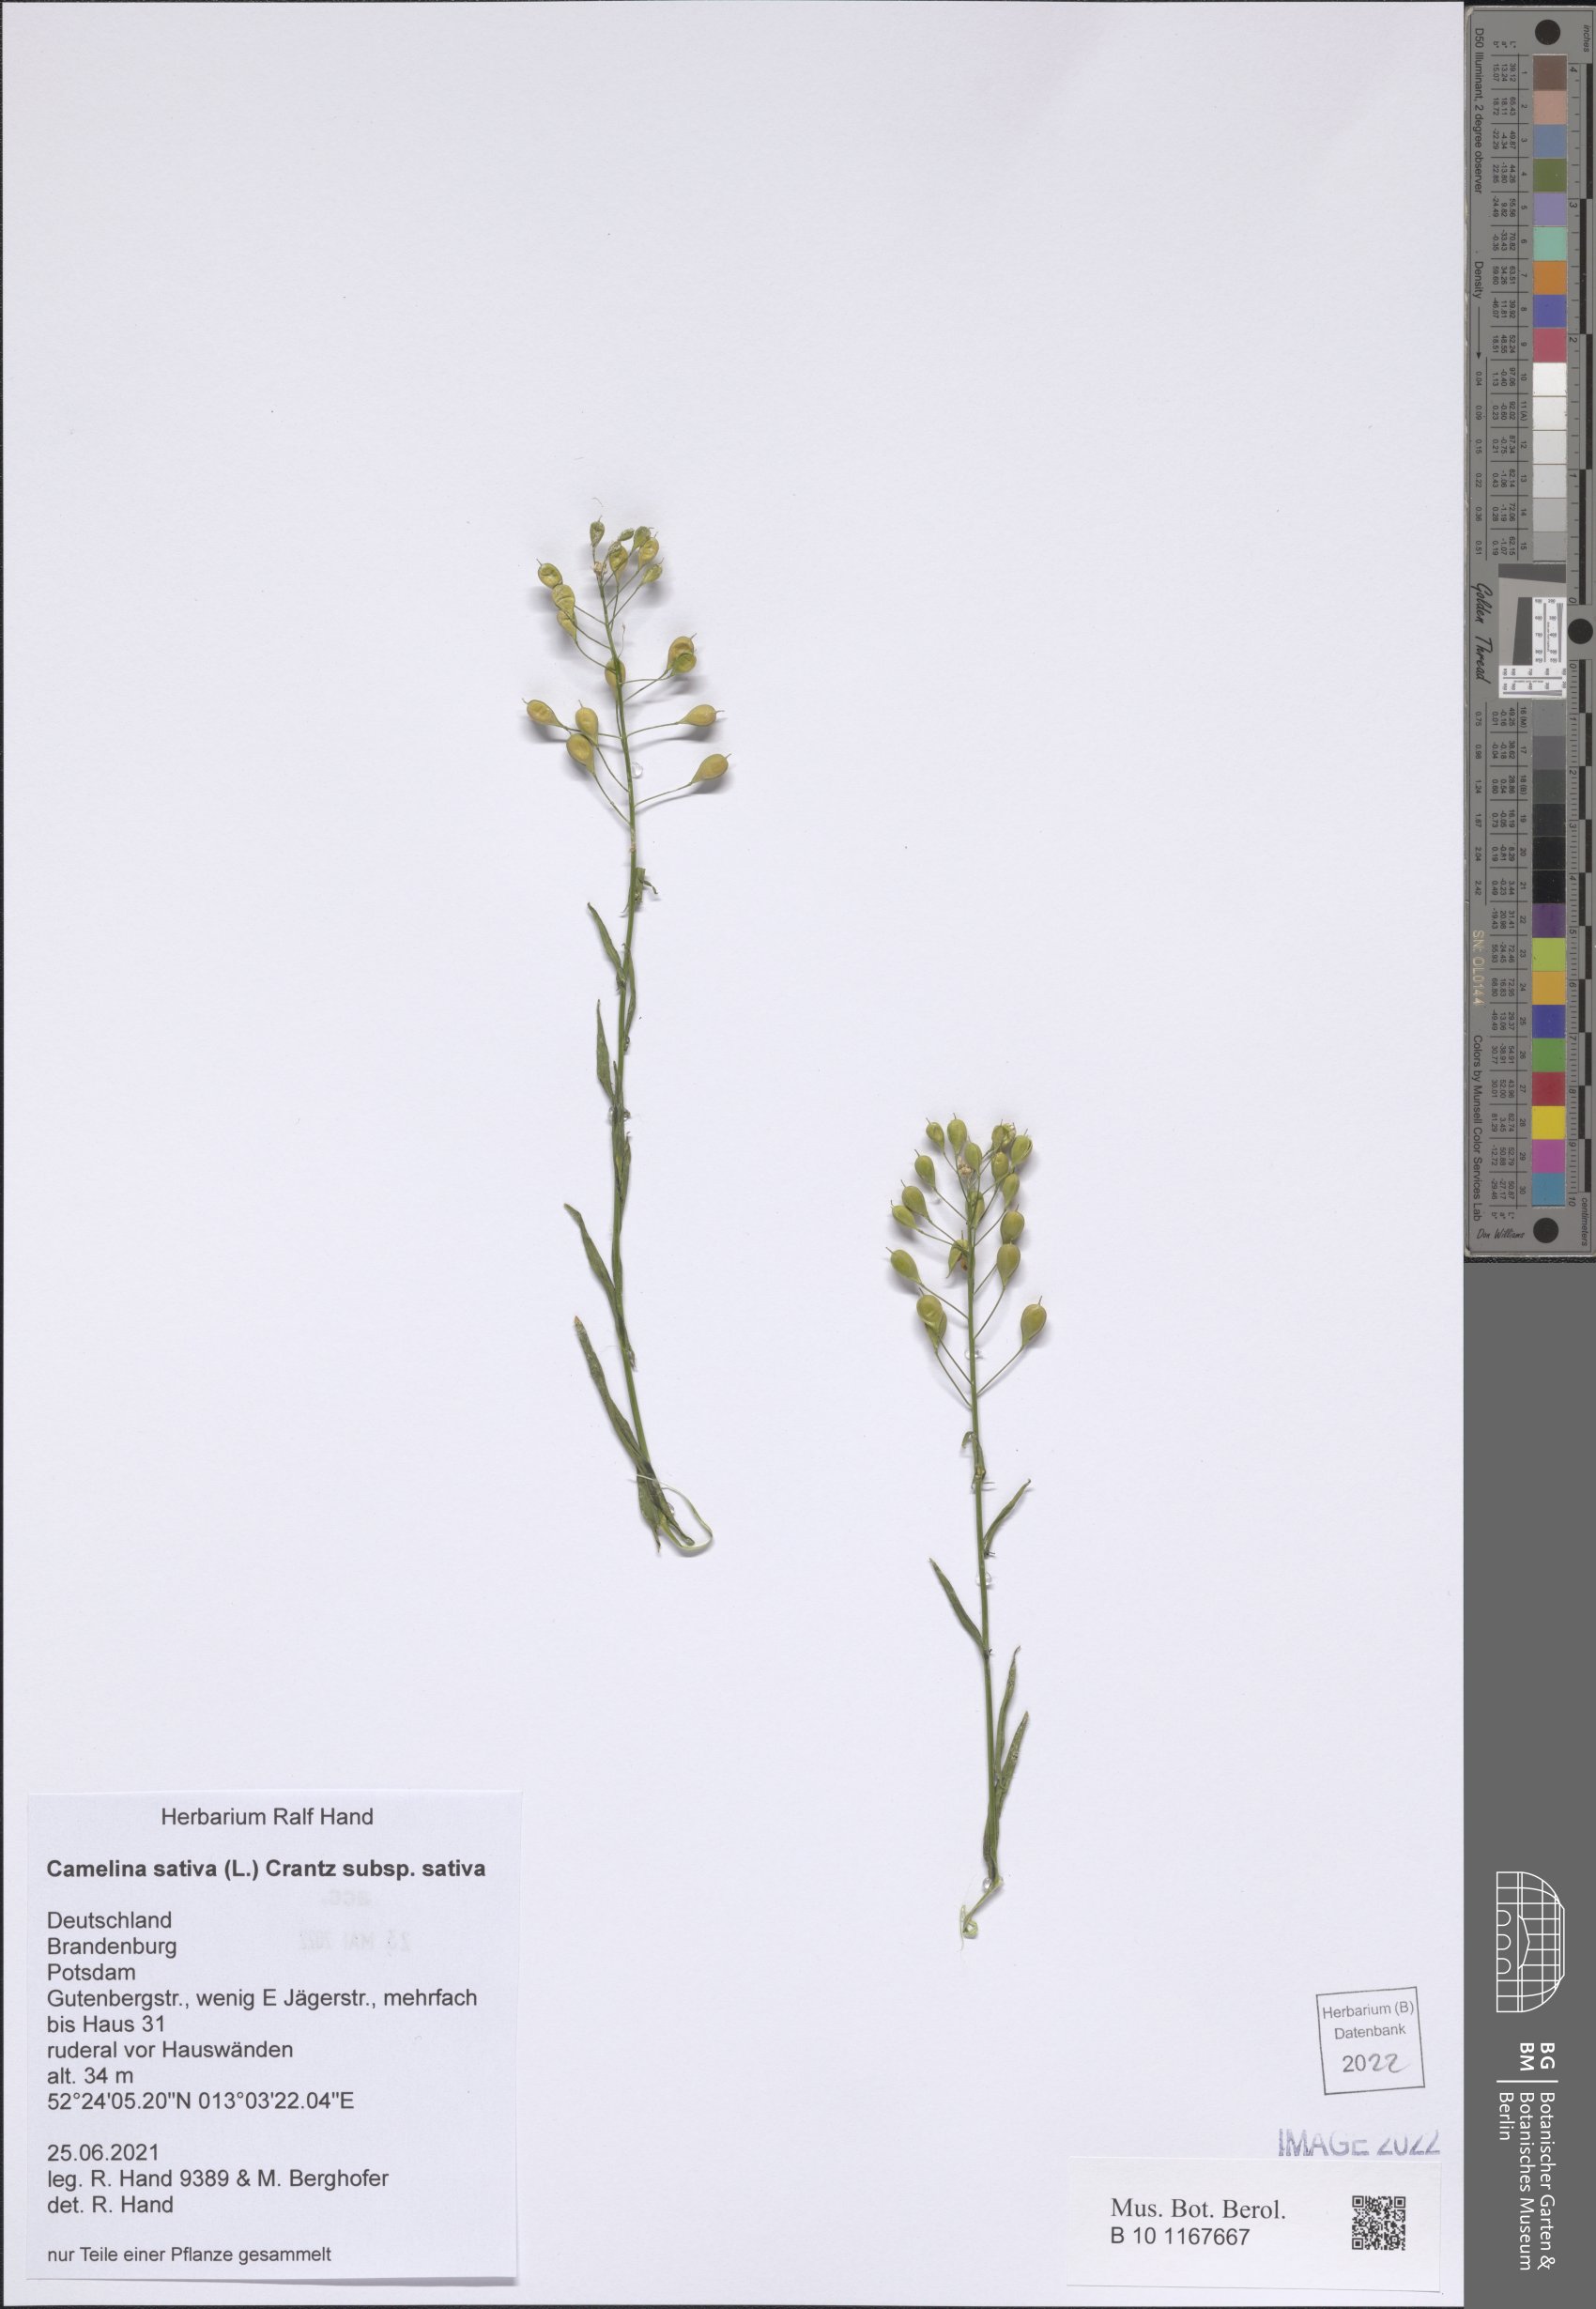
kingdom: Plantae
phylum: Tracheophyta
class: Magnoliopsida
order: Brassicales
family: Brassicaceae
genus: Camelina
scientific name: Camelina sativa
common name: Gold-of-pleasure
